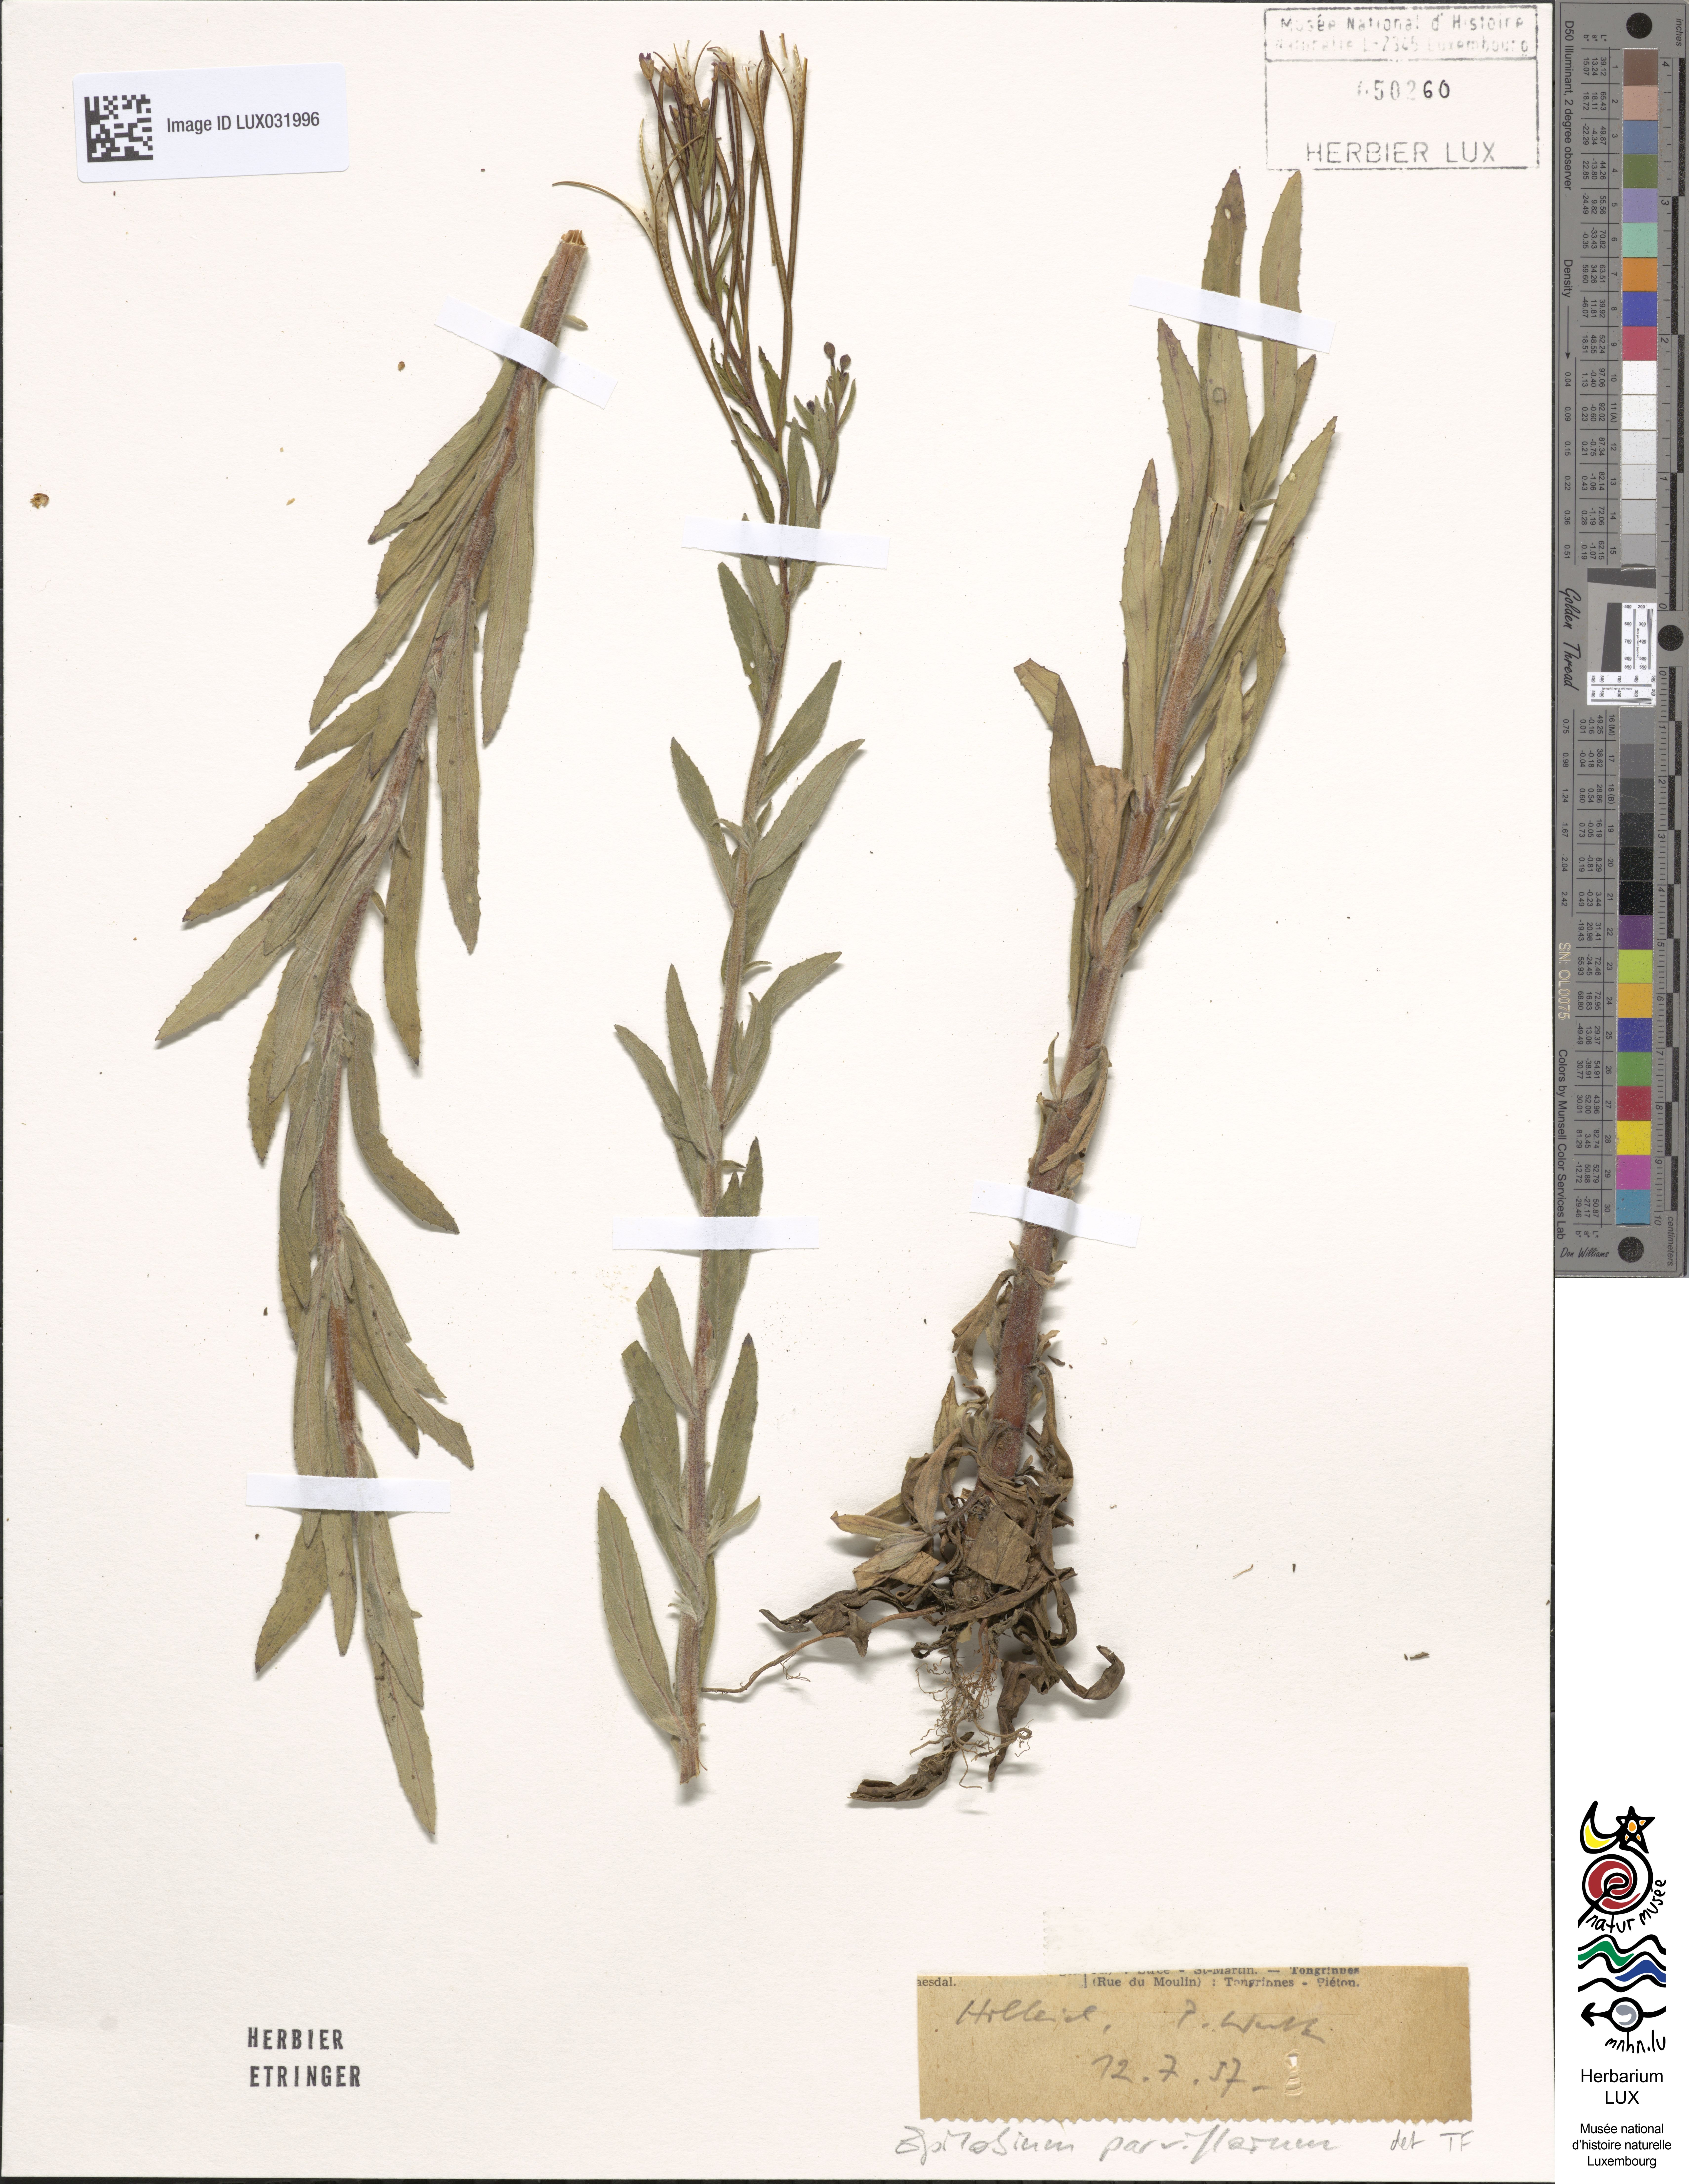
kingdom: Plantae
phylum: Tracheophyta
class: Magnoliopsida
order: Myrtales
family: Onagraceae
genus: Epilobium
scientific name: Epilobium parviflorum
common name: Hoary willowherb
